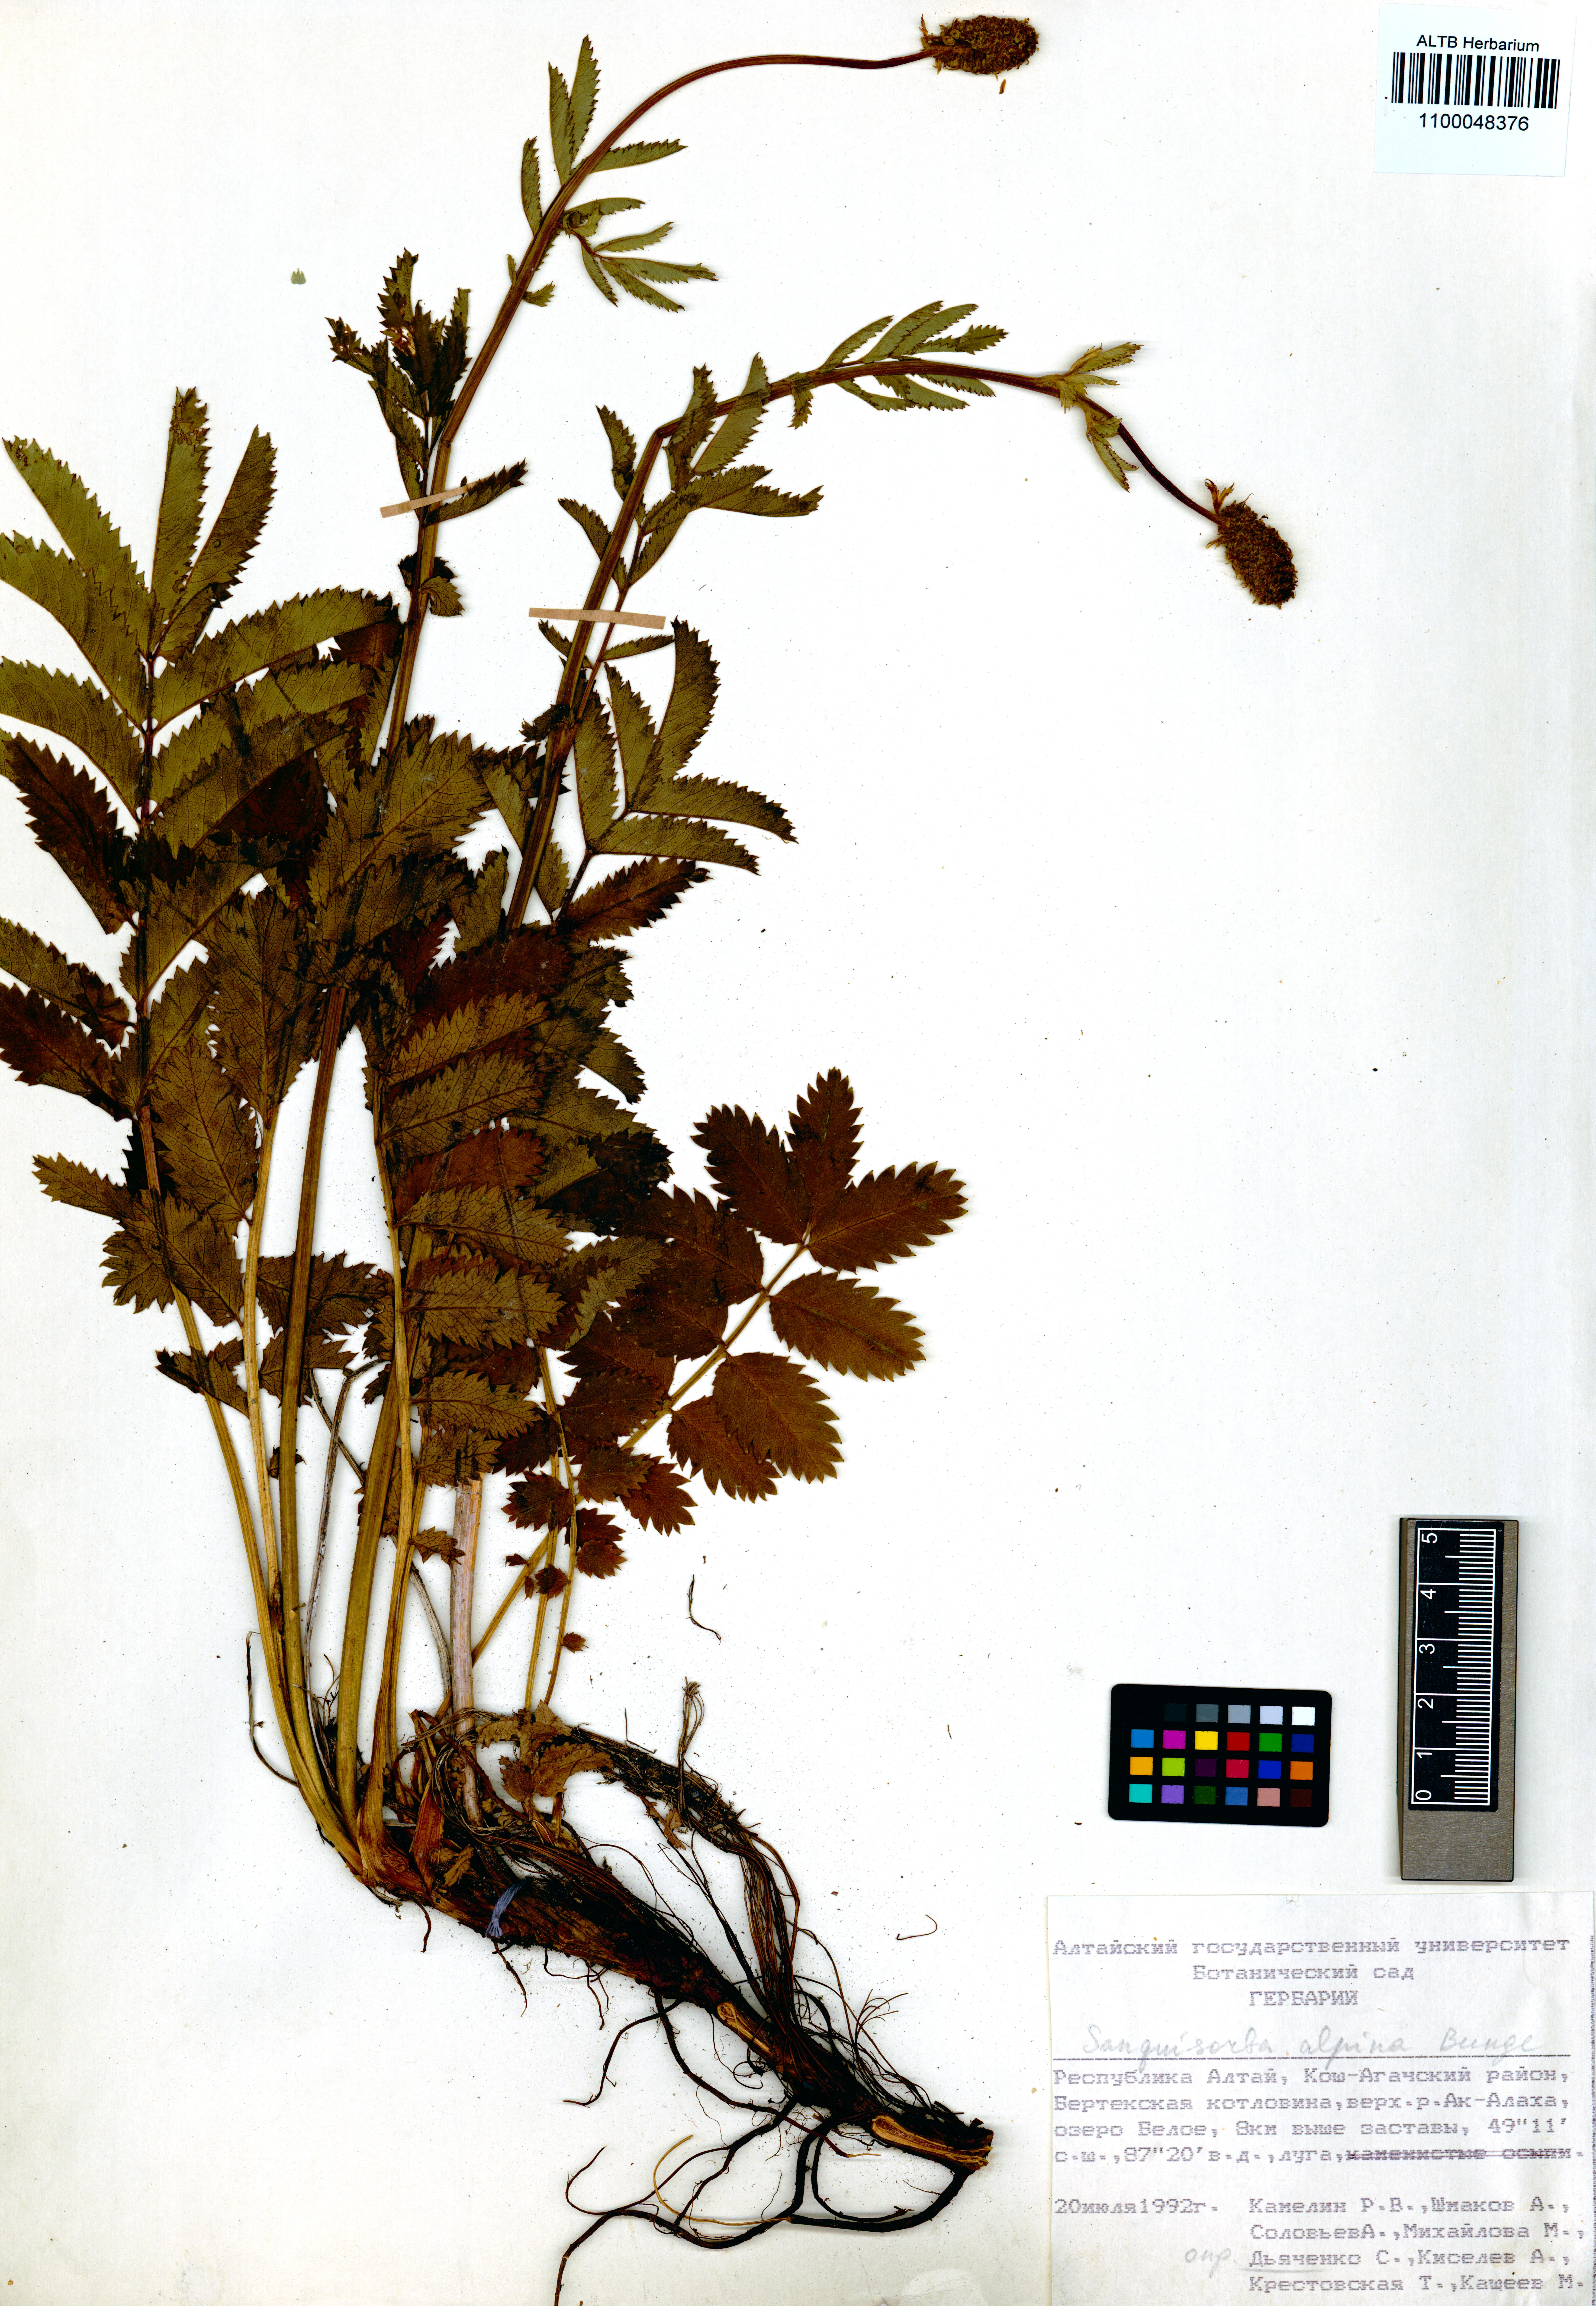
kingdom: Plantae
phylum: Tracheophyta
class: Magnoliopsida
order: Rosales
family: Rosaceae
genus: Sanguisorba
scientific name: Sanguisorba alpina
